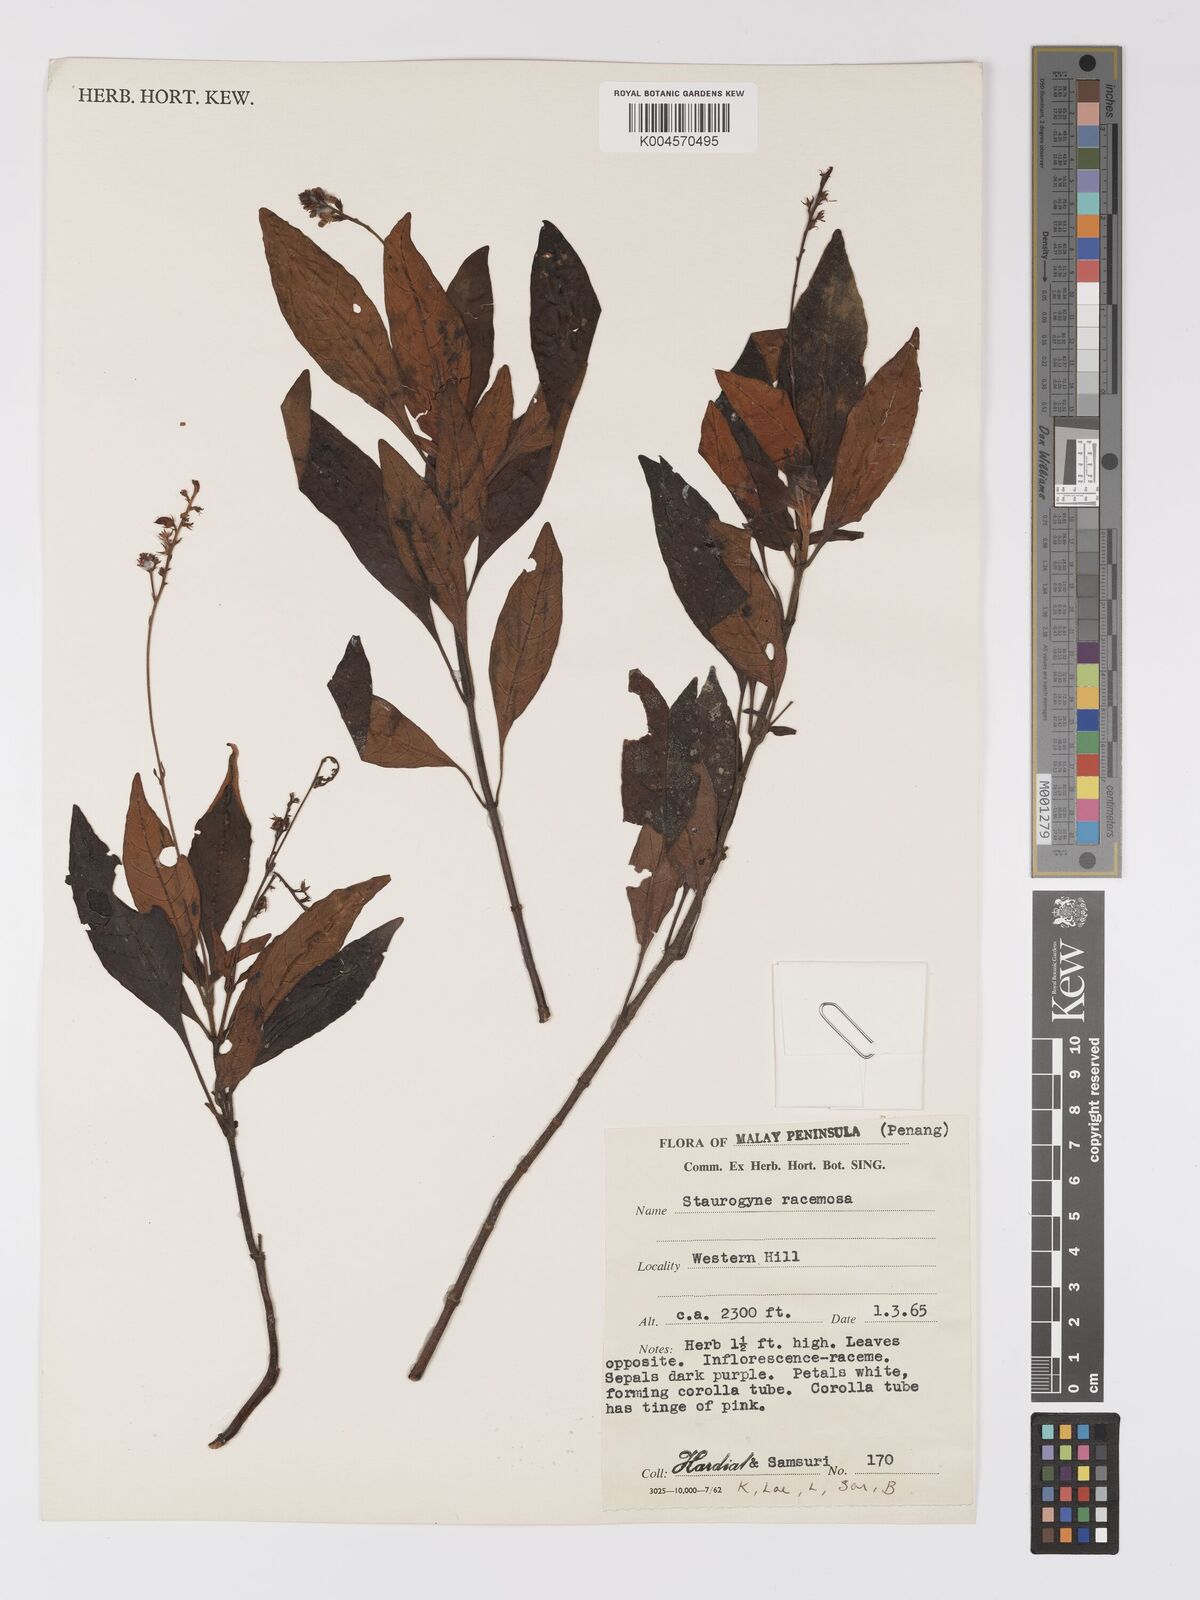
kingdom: Plantae
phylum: Tracheophyta
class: Magnoliopsida
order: Lamiales
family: Acanthaceae
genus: Staurogyne
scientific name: Staurogyne racemosa
